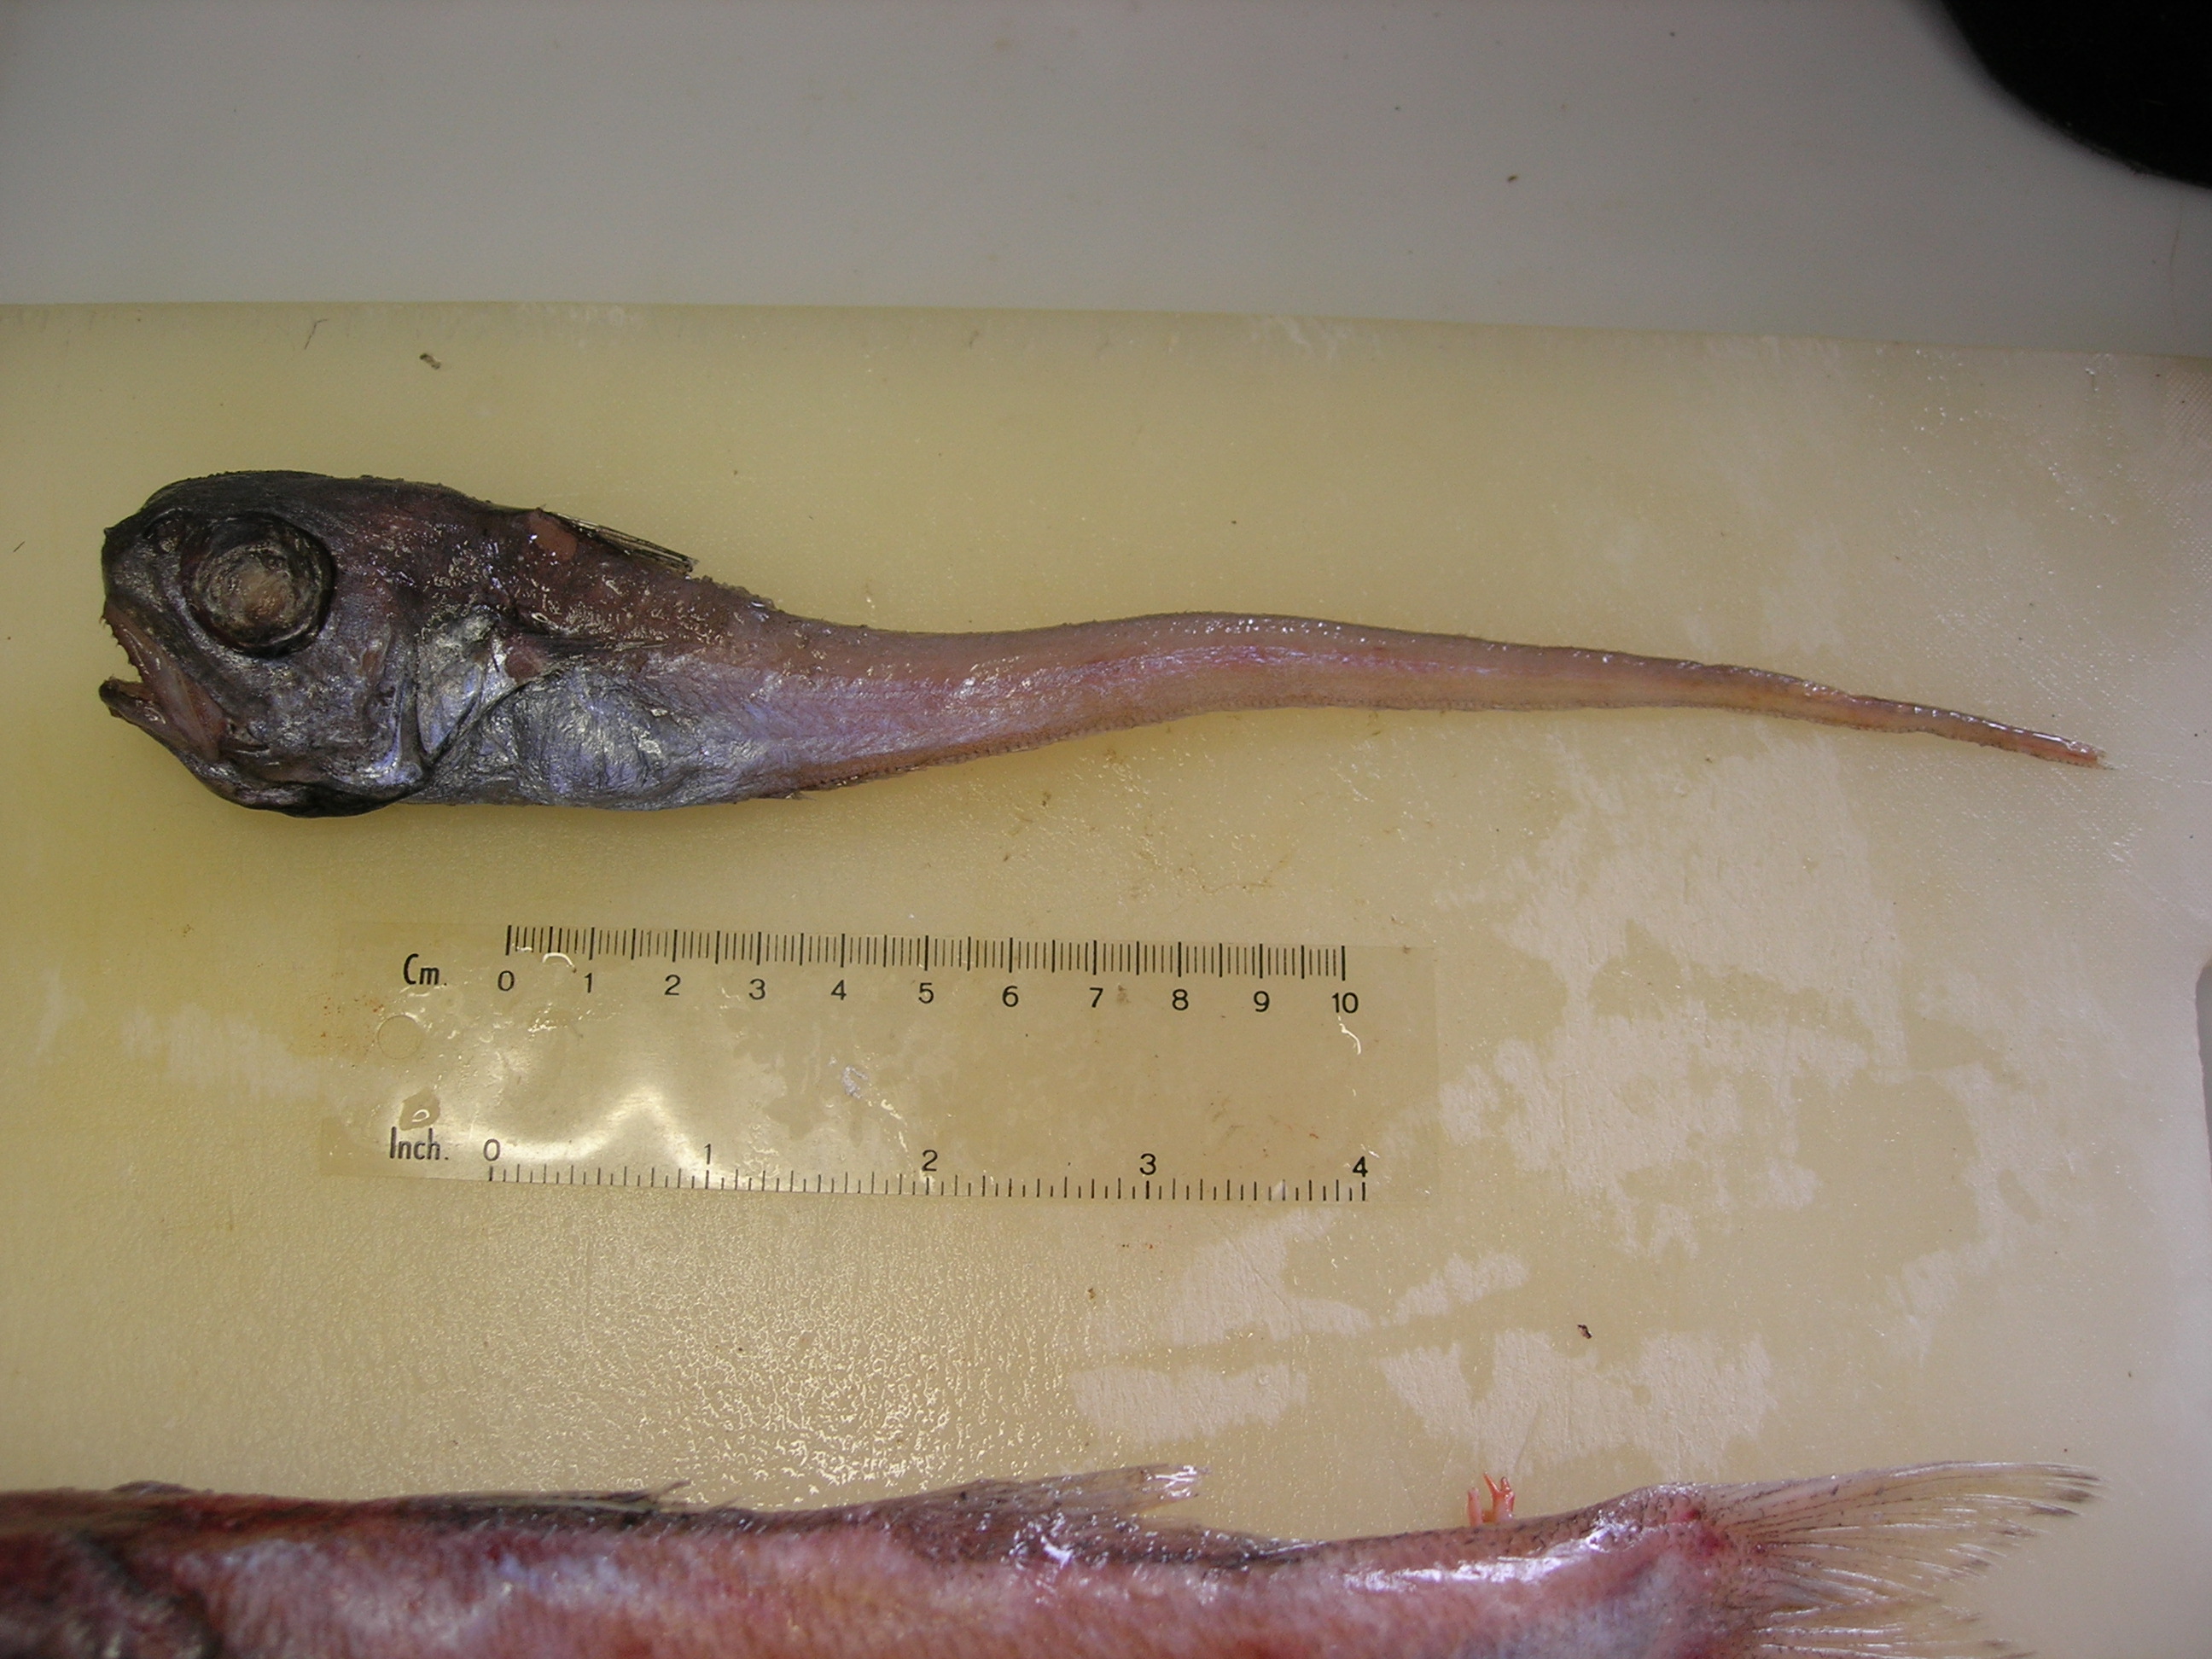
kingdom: Animalia
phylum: Chordata
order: Gadiformes
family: Macrouridae
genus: Malacocephalus
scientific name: Malacocephalus laevis
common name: Softhead grenadier
